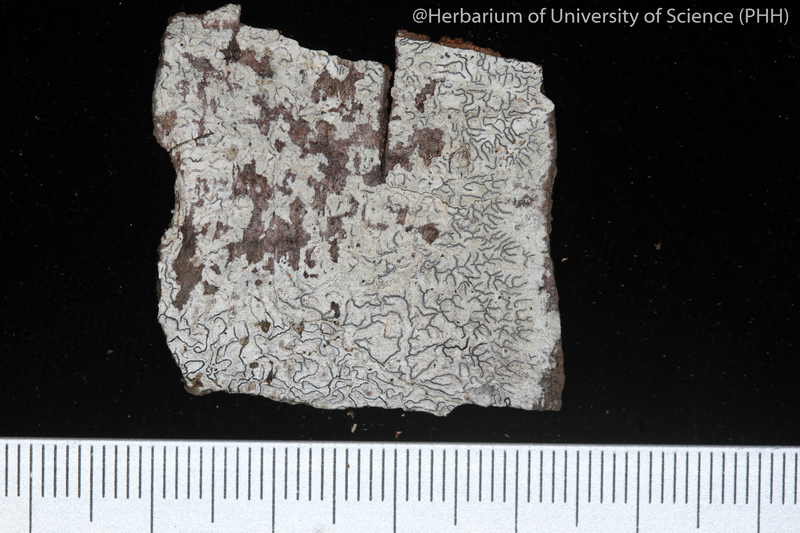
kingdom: Fungi
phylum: Ascomycota
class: Lecanoromycetes
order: Ostropales
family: Graphidaceae
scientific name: Graphidaceae
